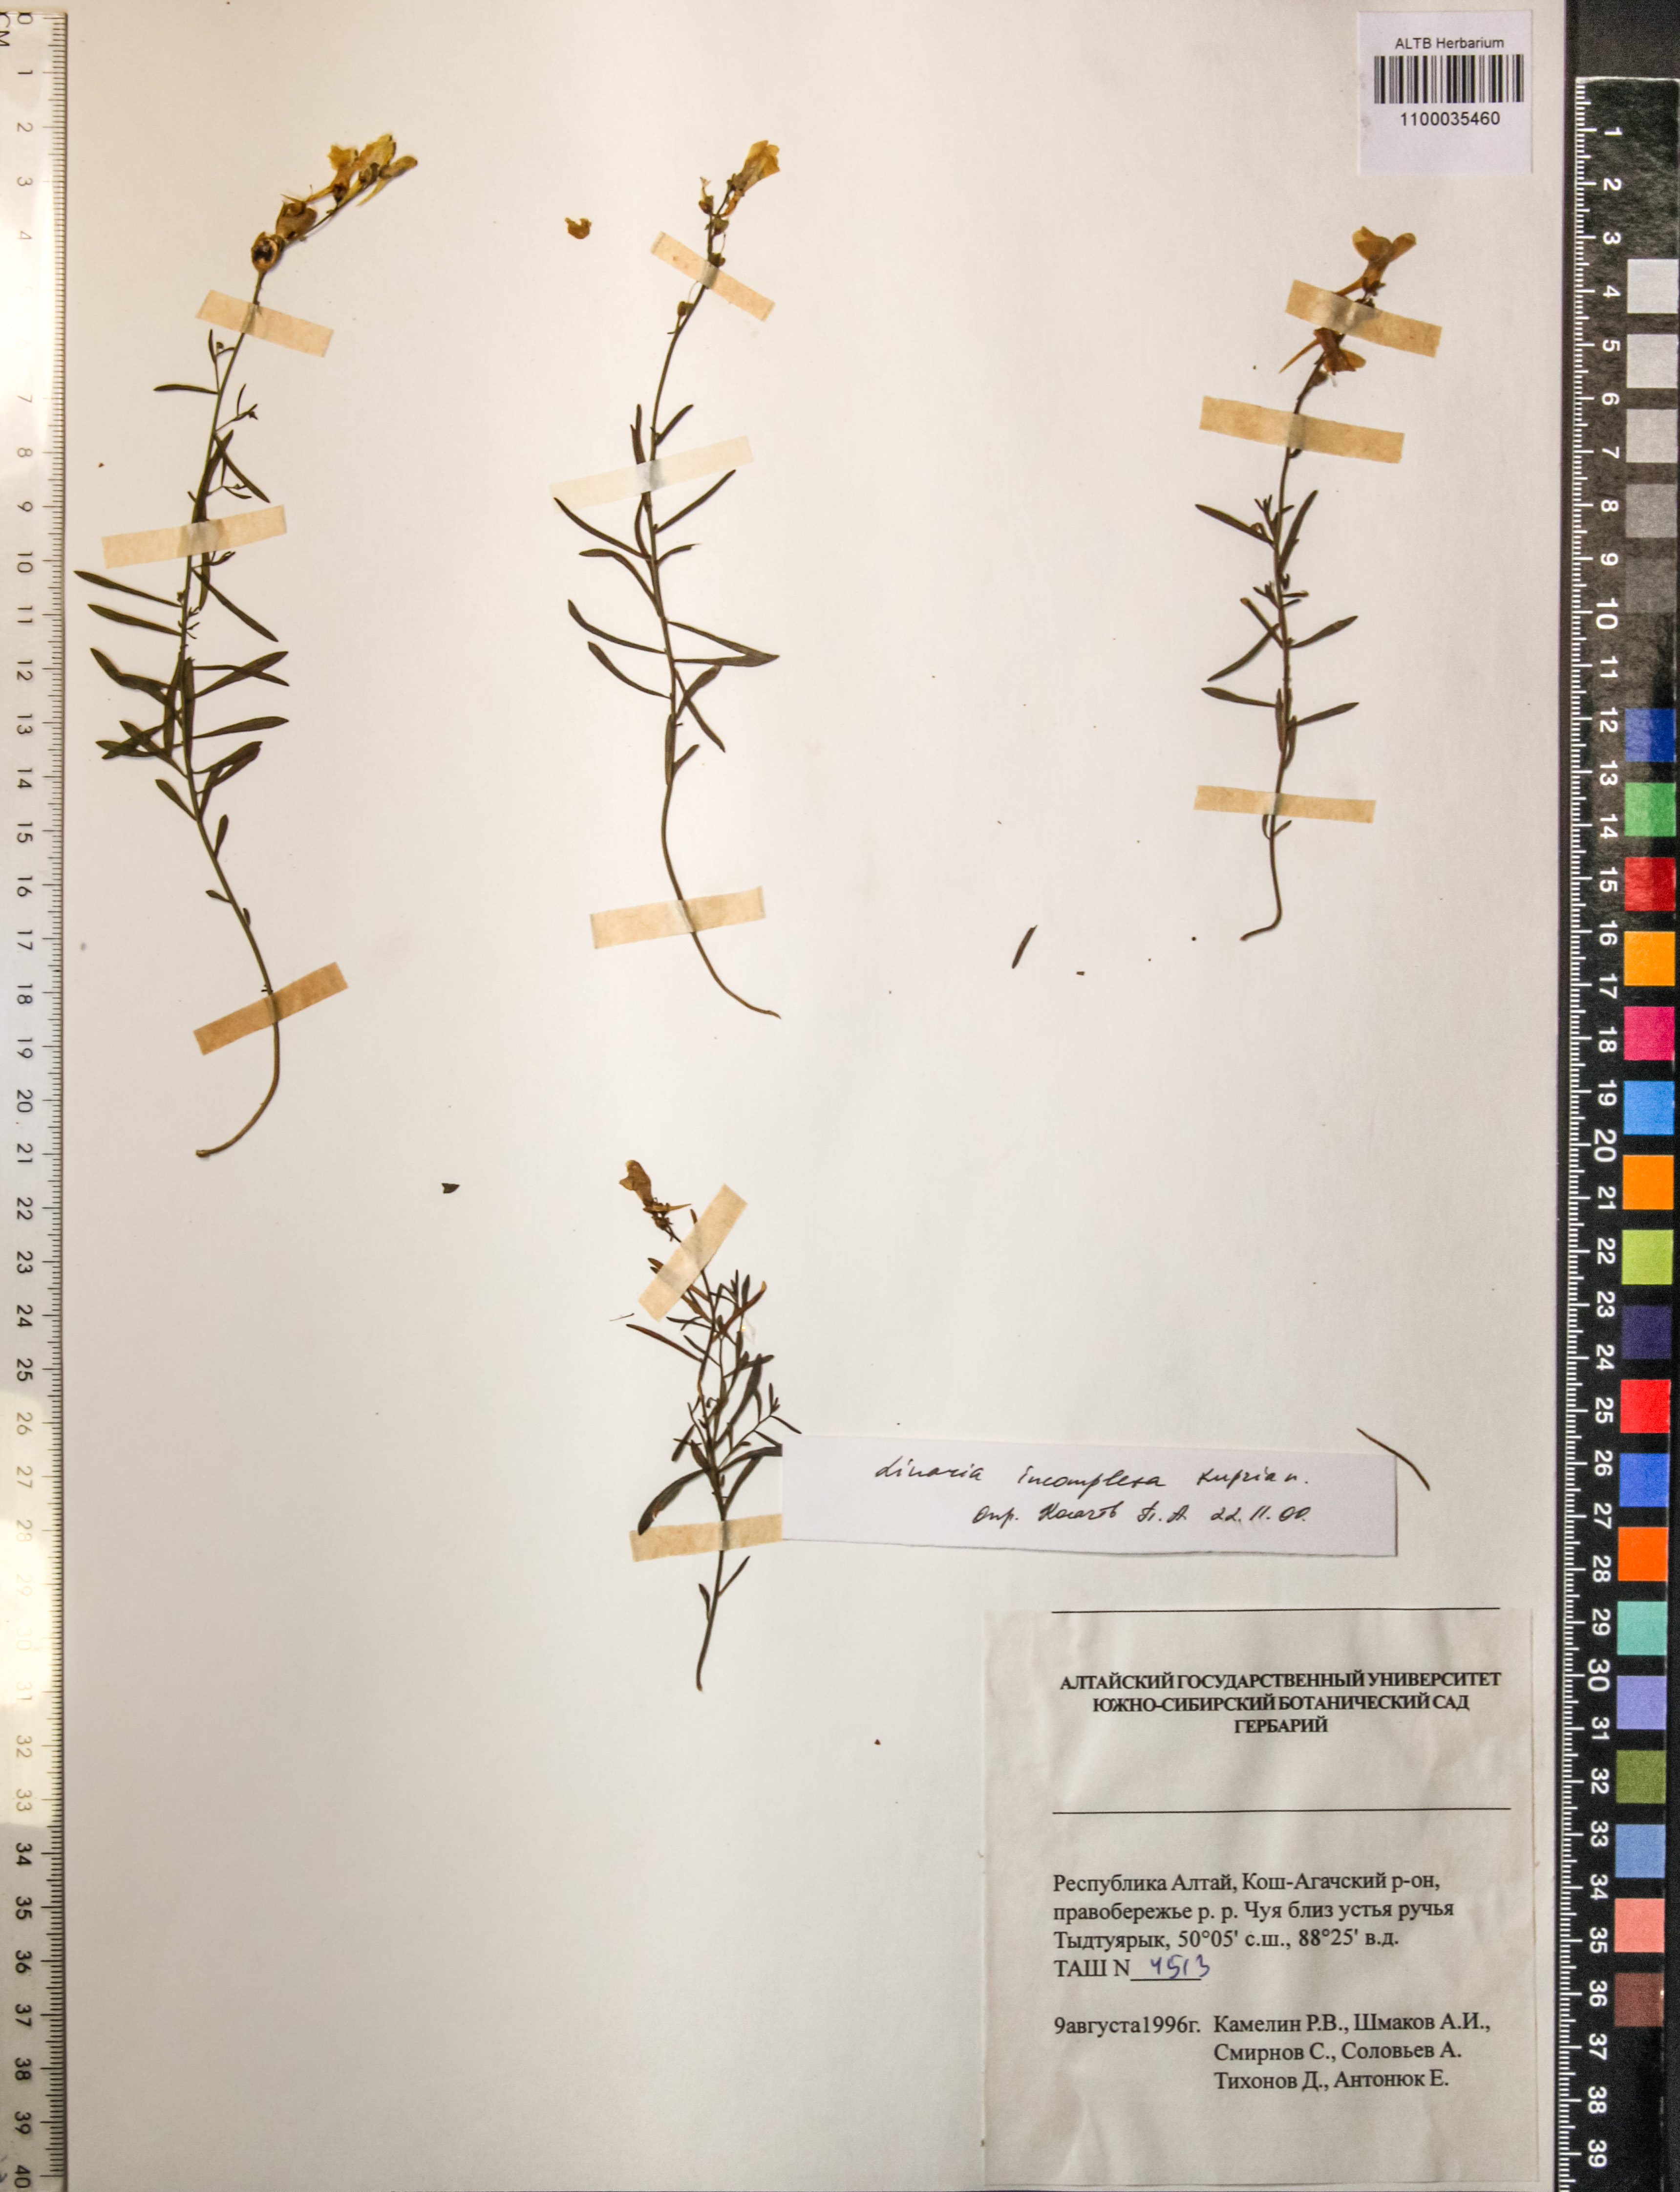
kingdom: Plantae
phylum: Tracheophyta
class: Magnoliopsida
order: Lamiales
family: Plantaginaceae
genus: Linaria
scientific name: Linaria incompleta
